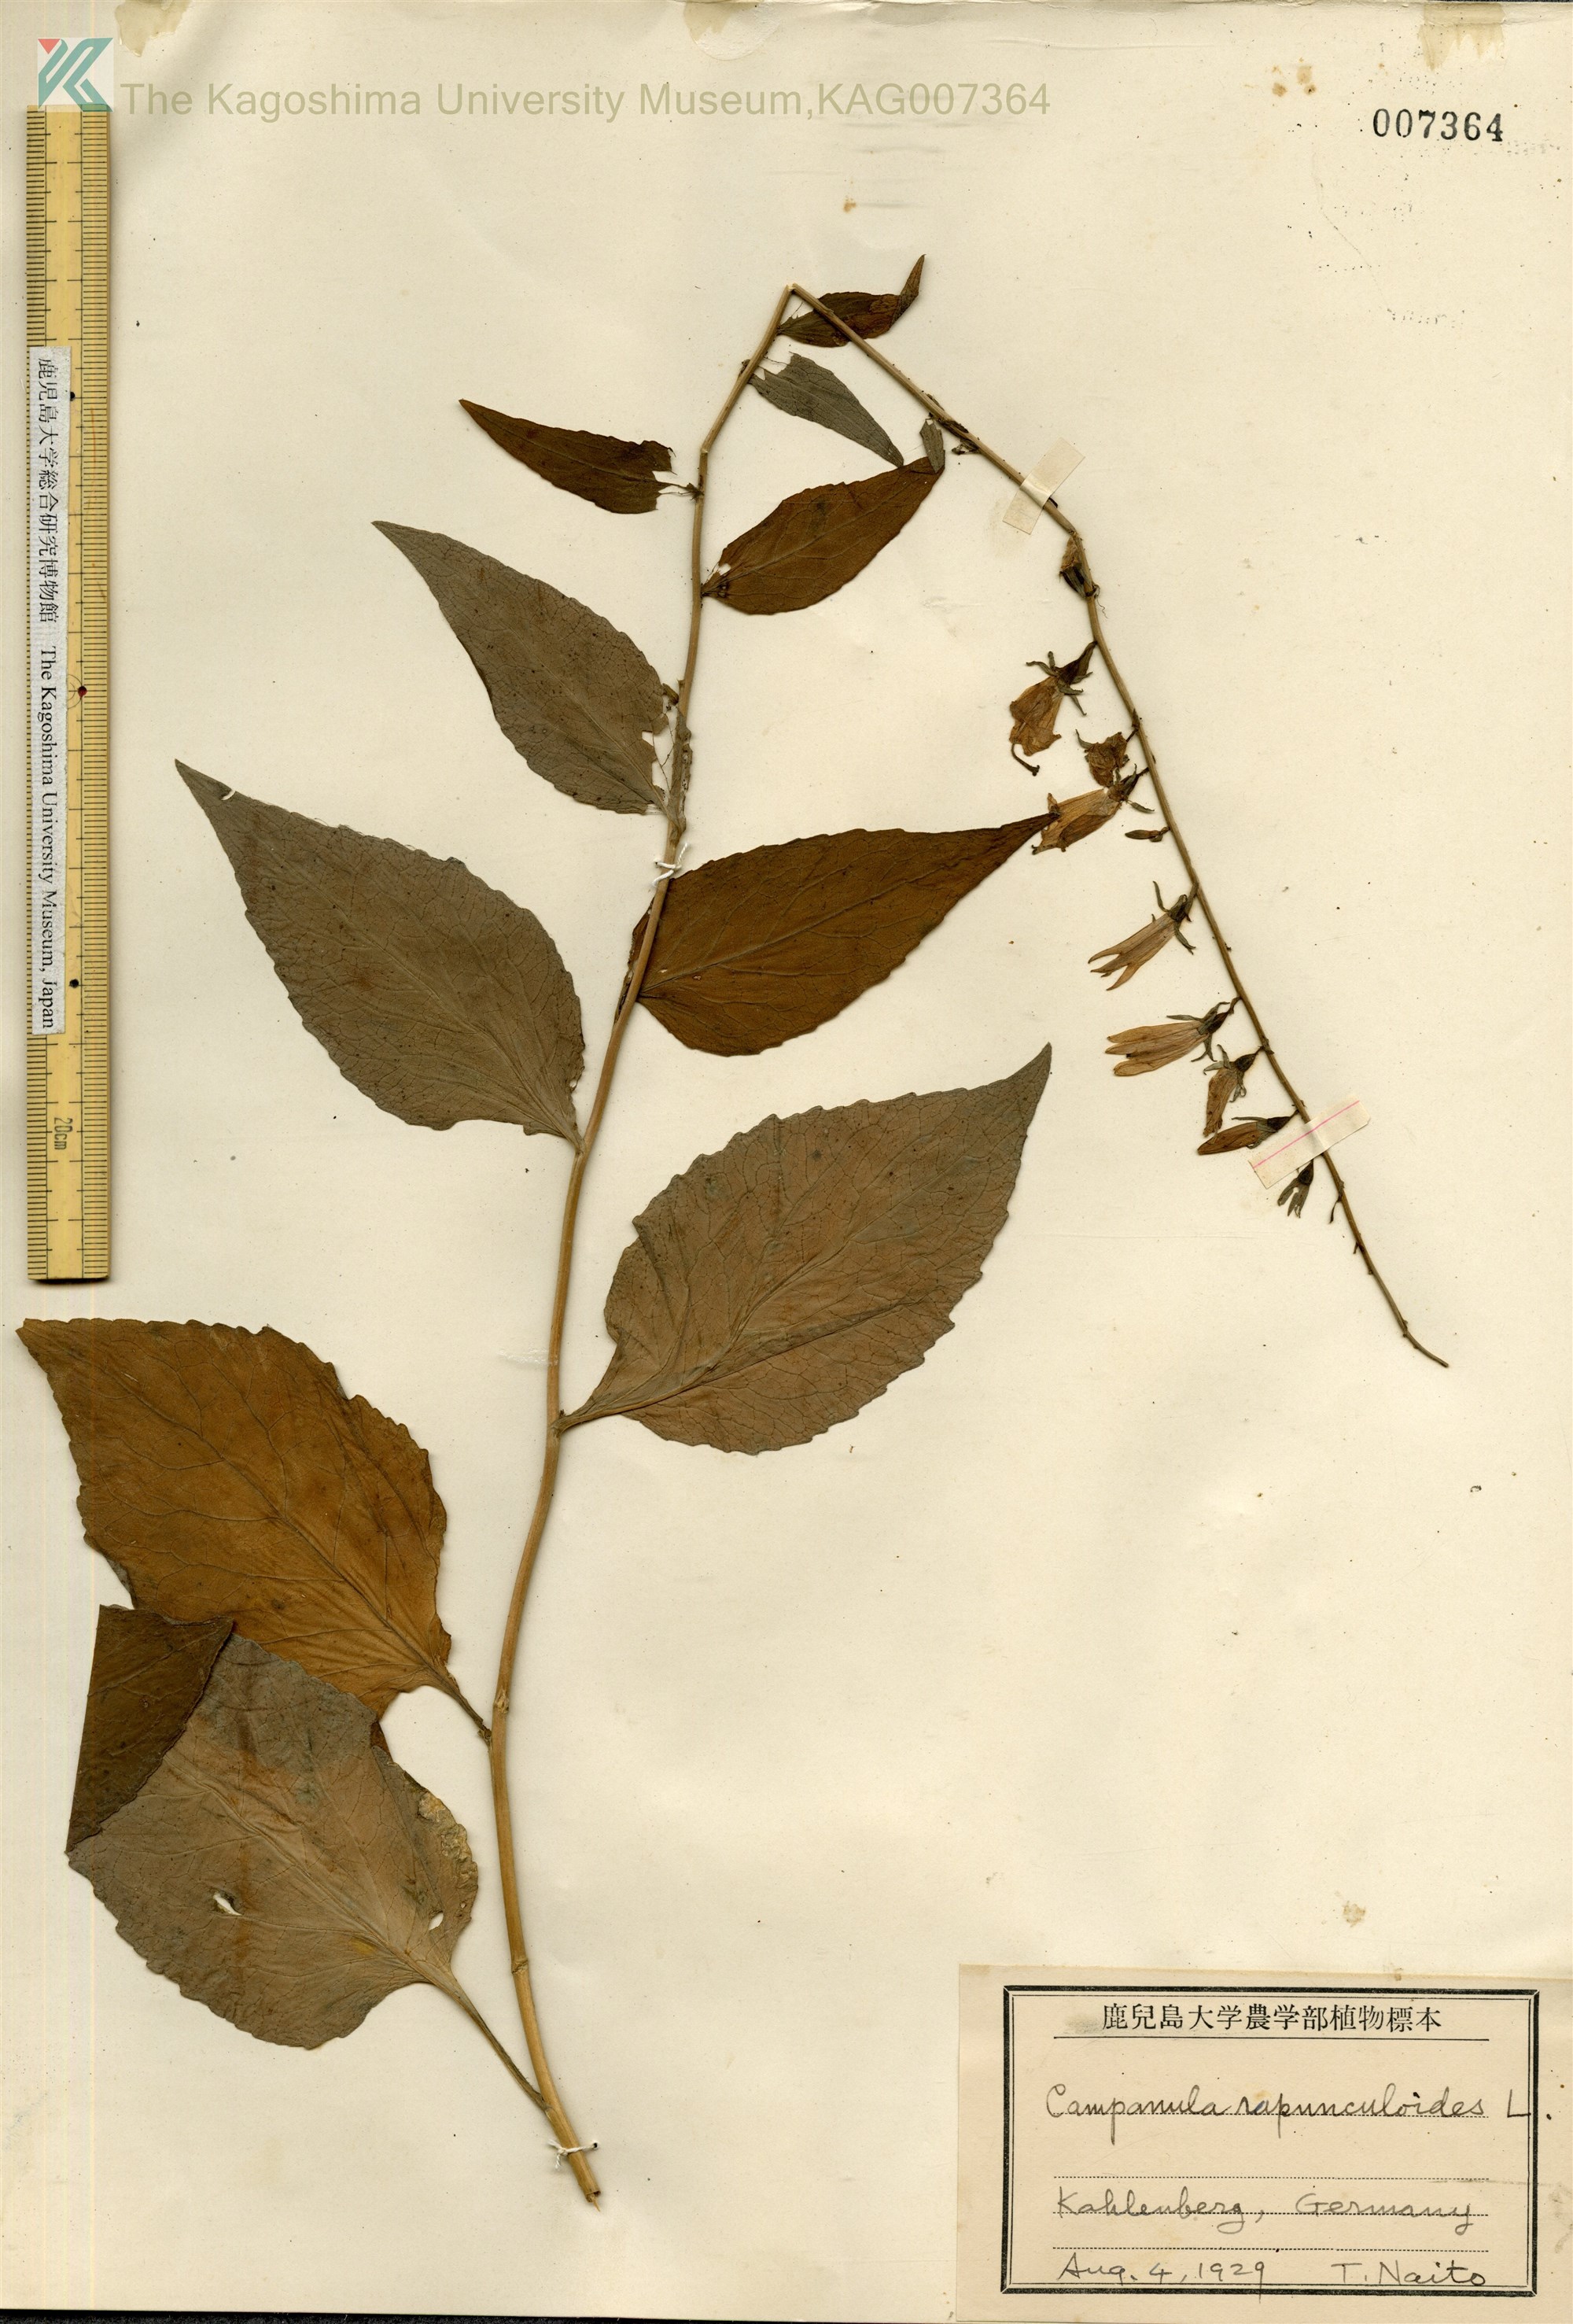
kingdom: Plantae
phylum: Tracheophyta
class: Magnoliopsida
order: Asterales
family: Campanulaceae
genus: Campanula
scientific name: Campanula rapunculus
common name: Rampion bellflower
